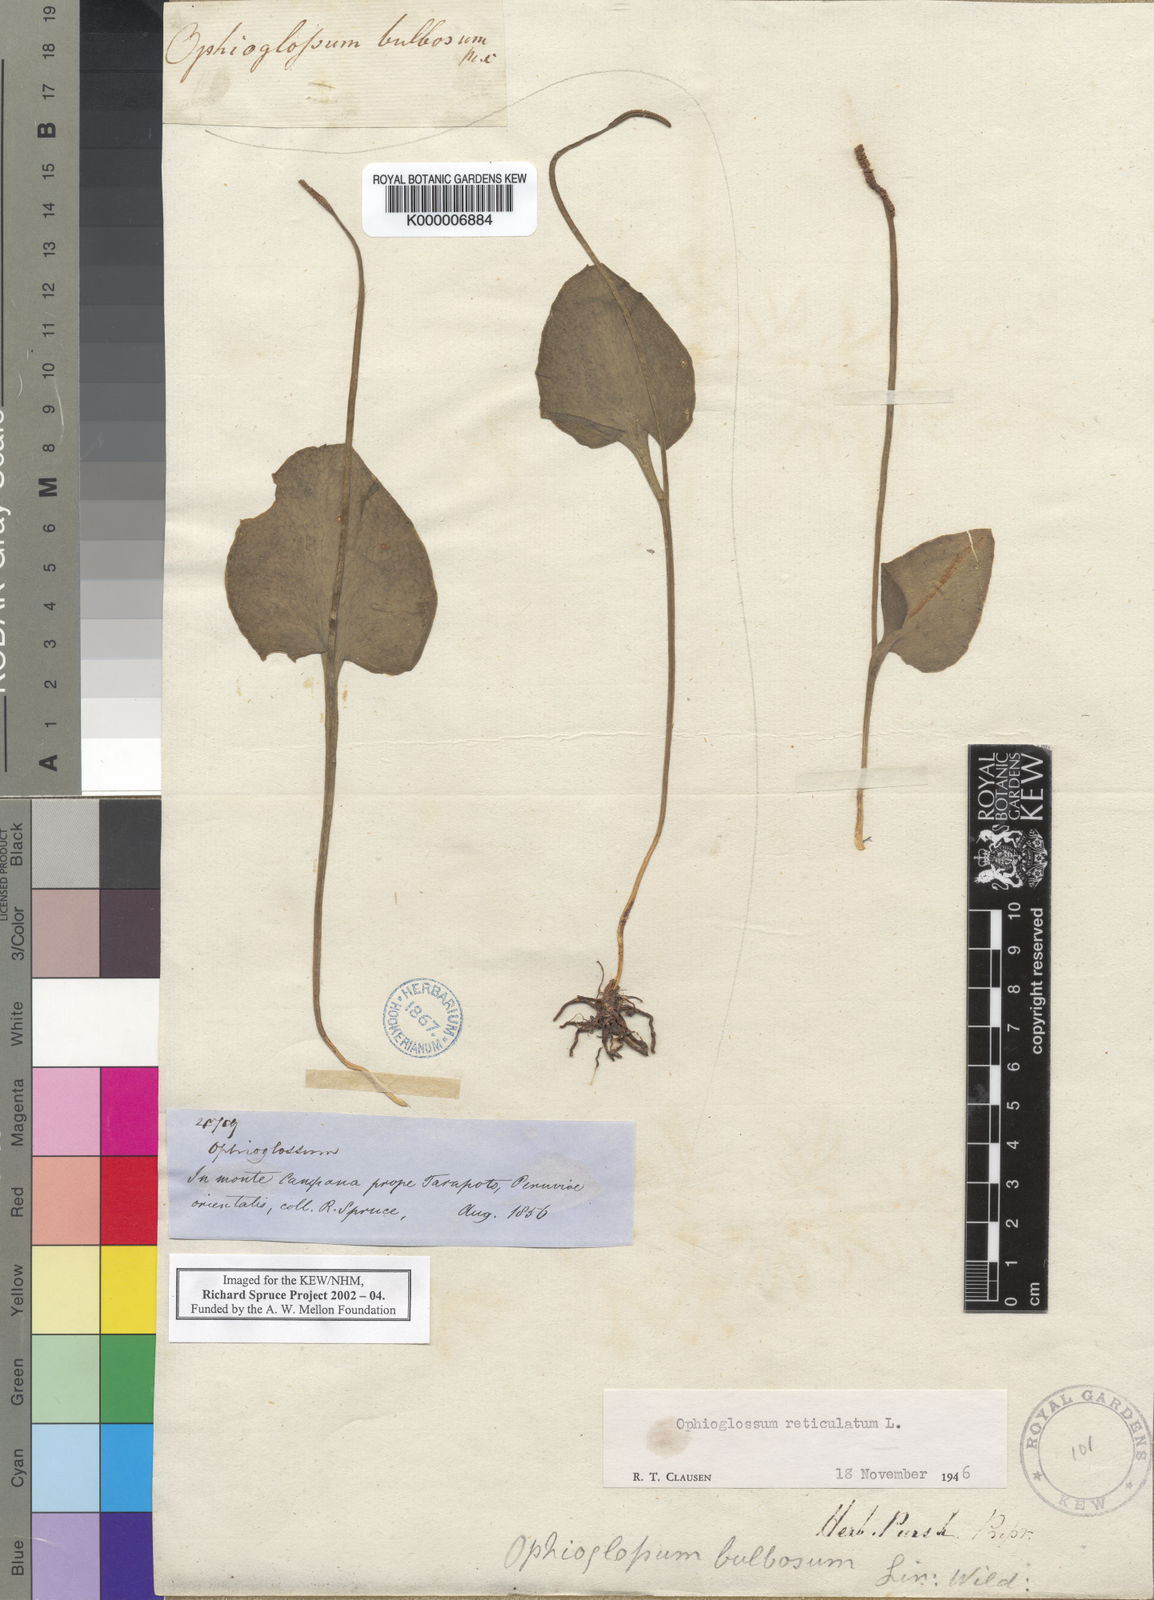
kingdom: Plantae
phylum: Tracheophyta
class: Polypodiopsida
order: Ophioglossales
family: Ophioglossaceae
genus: Ophioglossum
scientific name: Ophioglossum reticulatum
